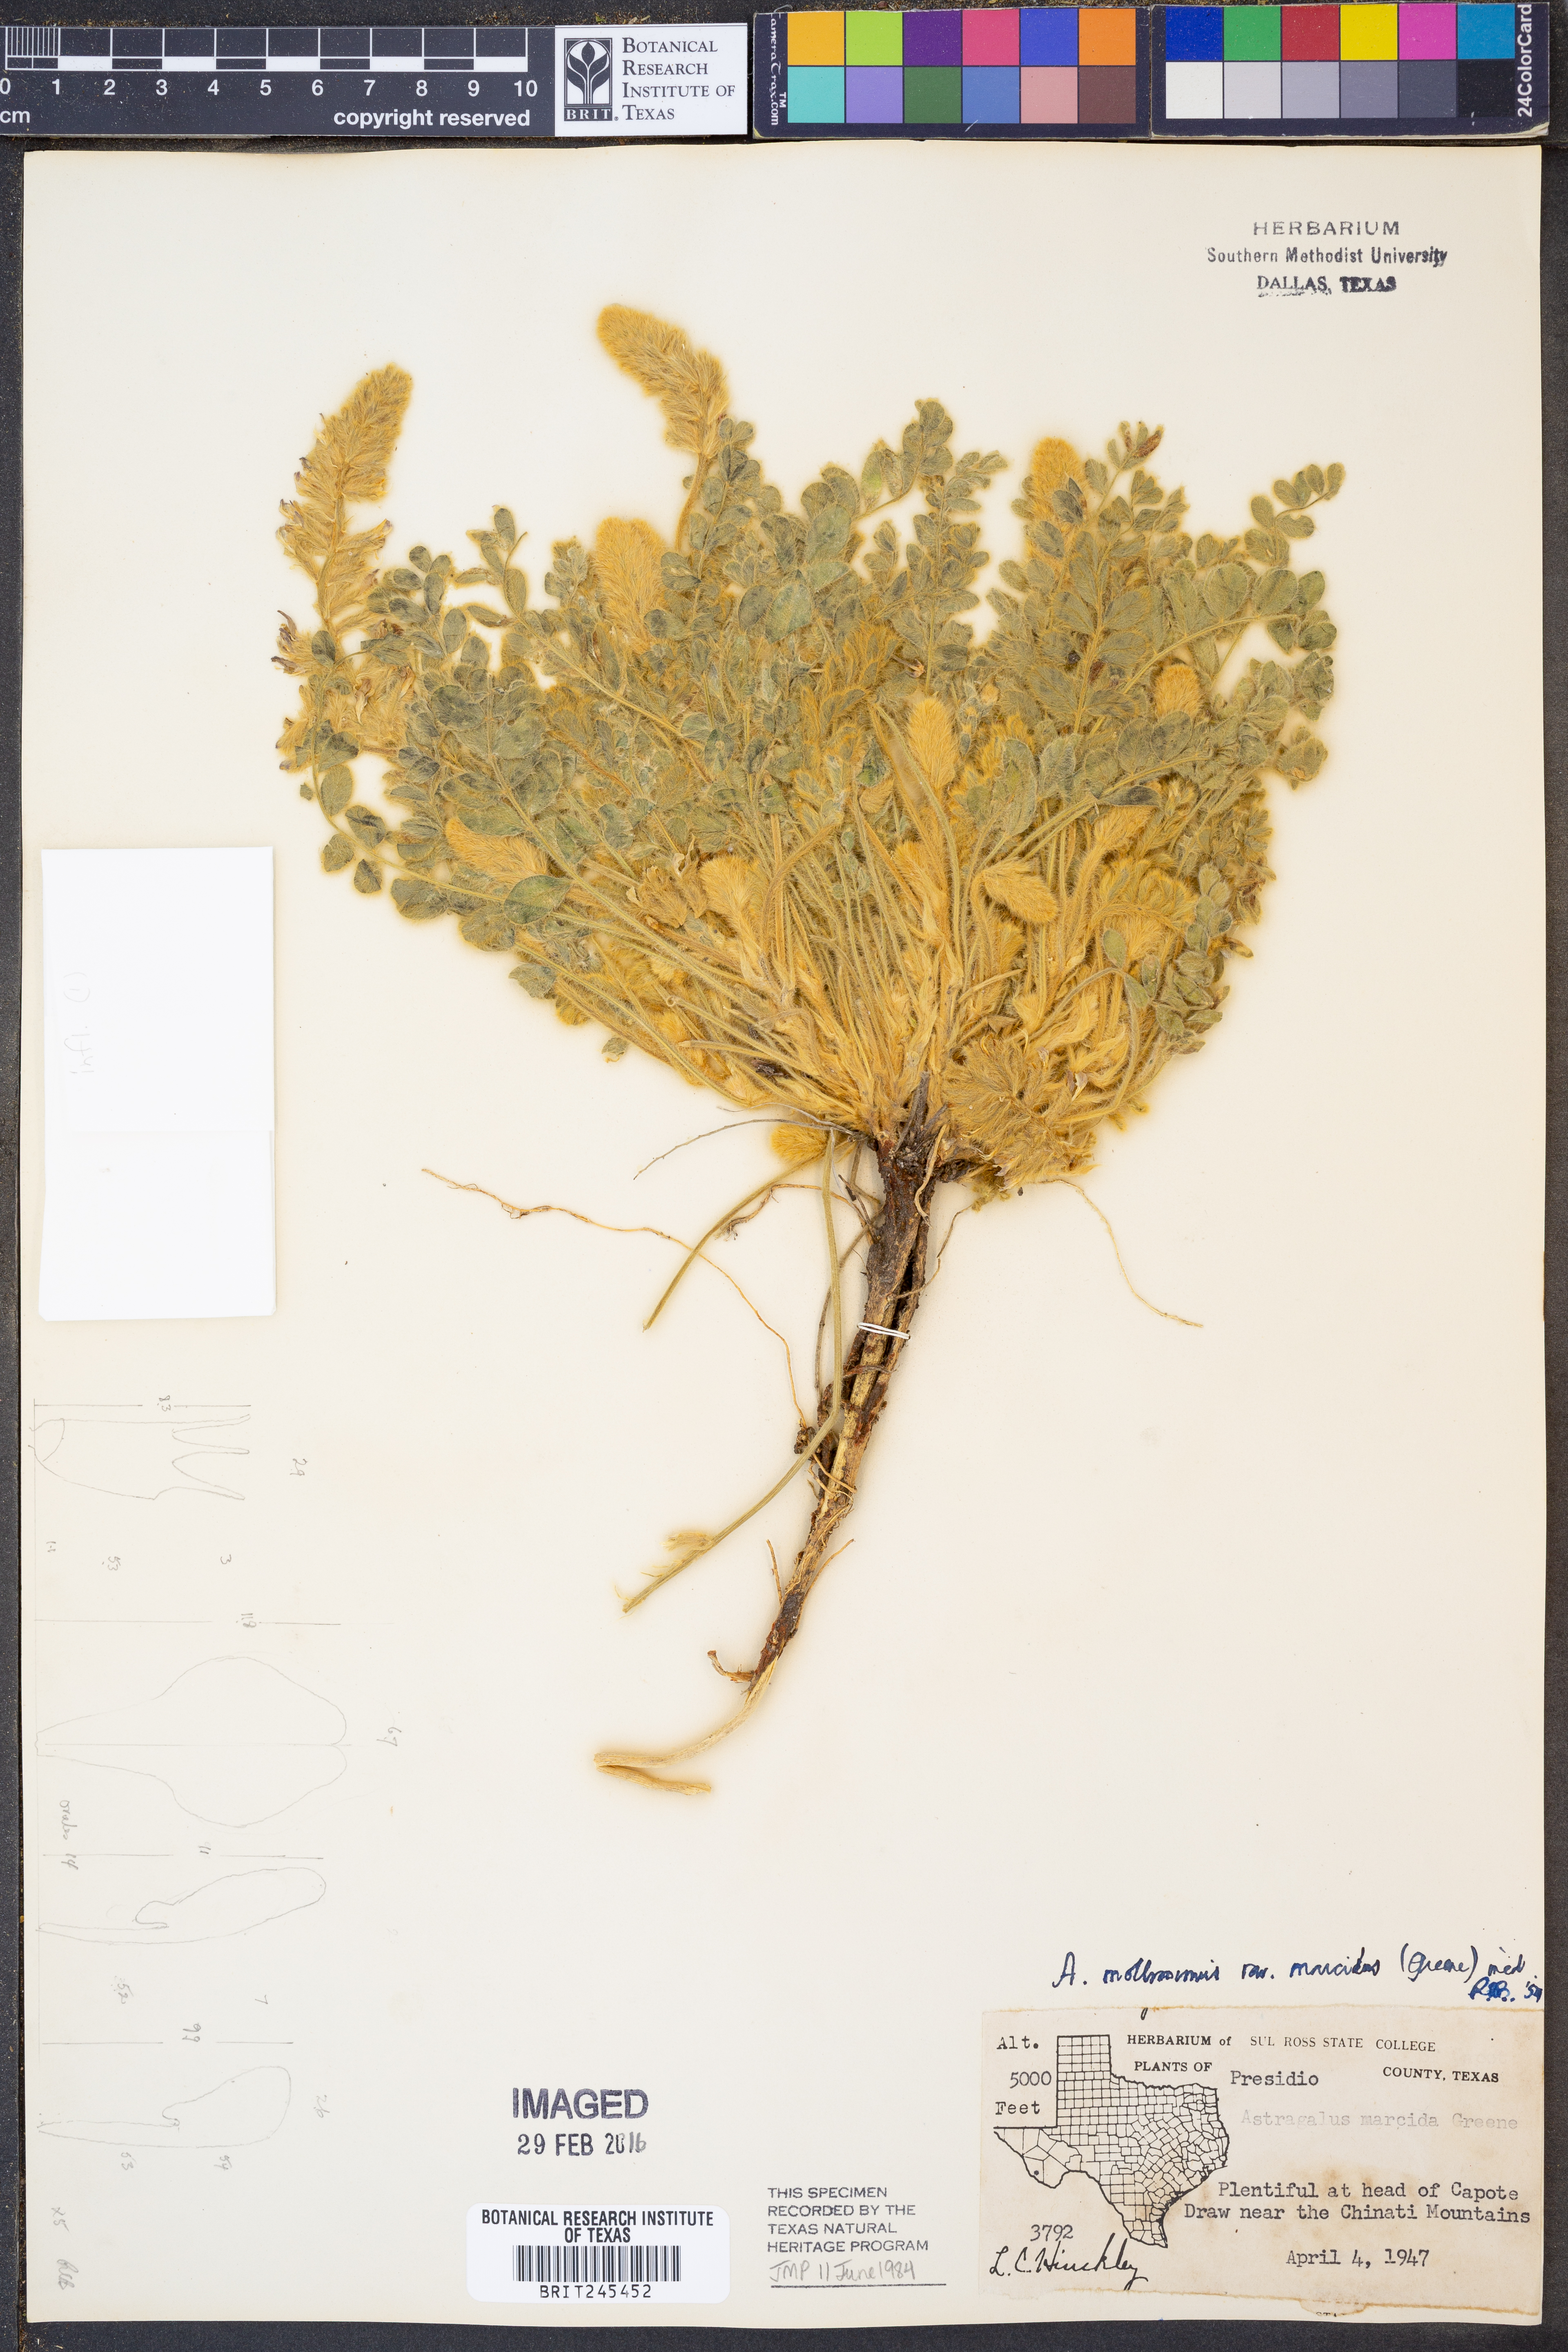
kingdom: Plantae
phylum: Tracheophyta
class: Magnoliopsida
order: Fabales
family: Fabaceae
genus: Astragalus
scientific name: Astragalus mollissimus
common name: Woolly locoweed
